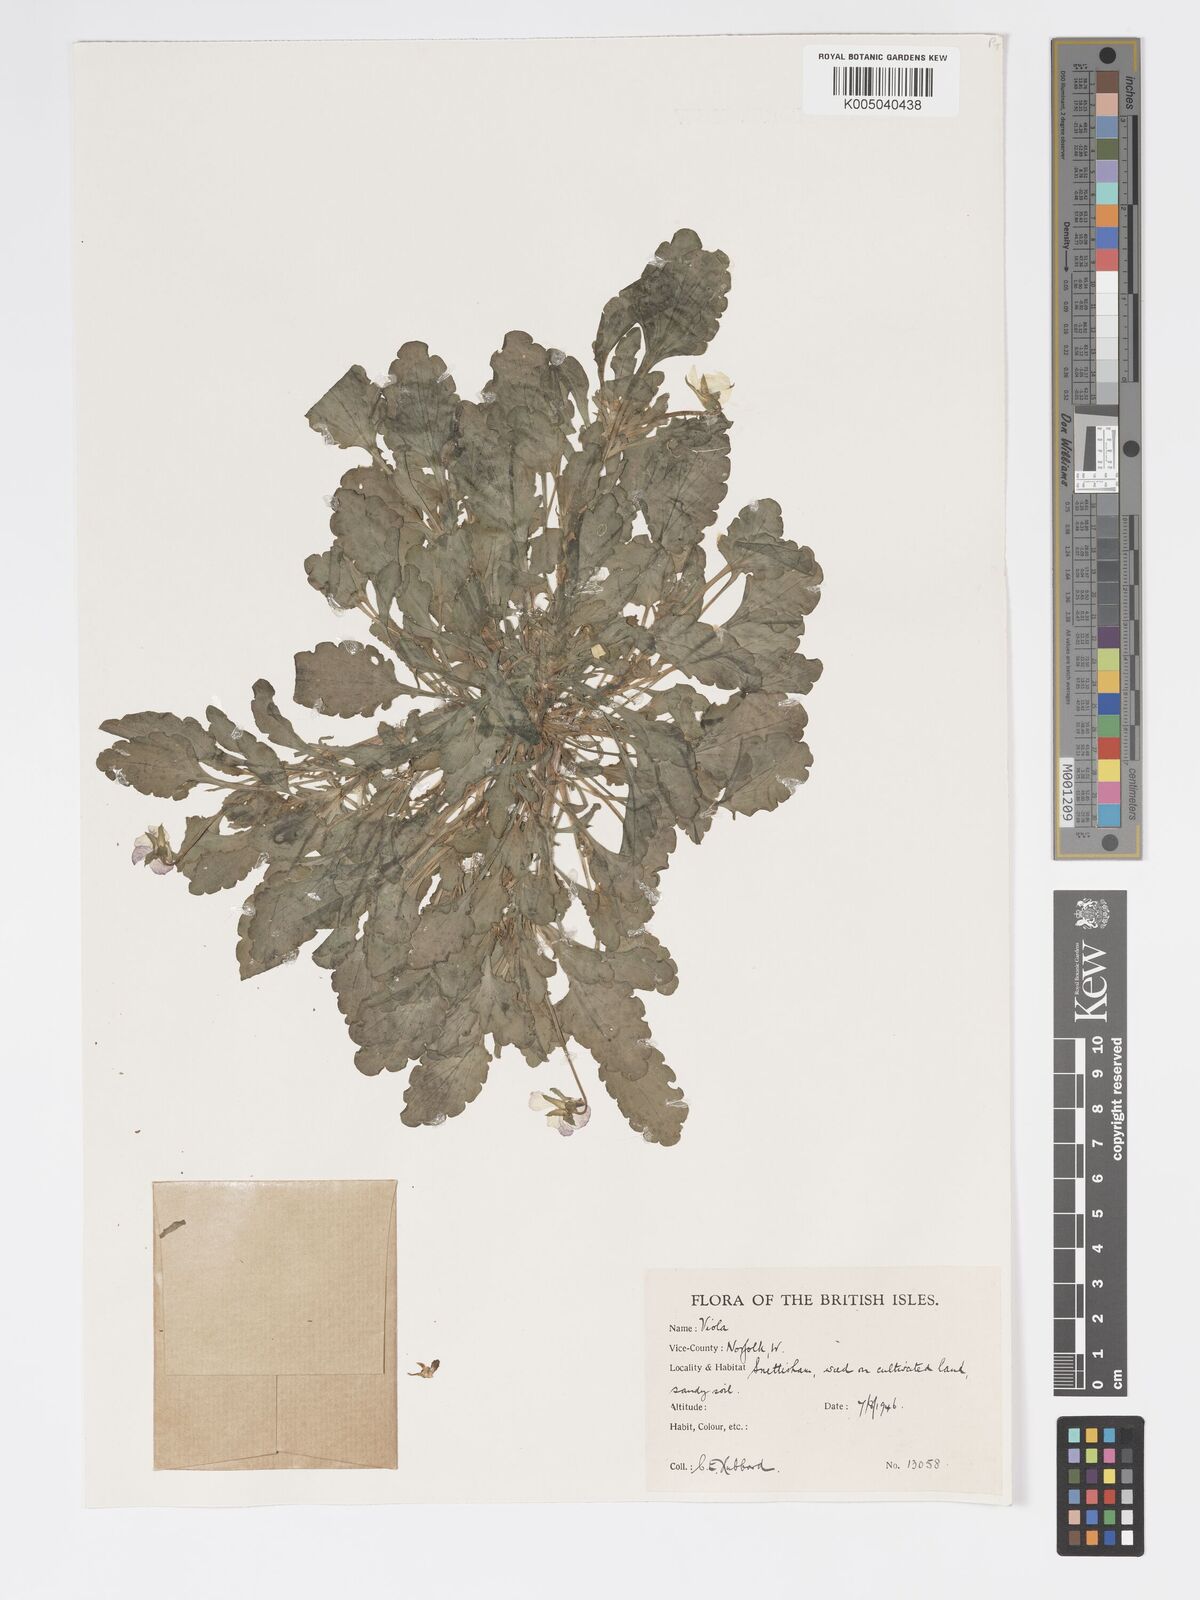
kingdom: Plantae
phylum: Tracheophyta
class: Magnoliopsida
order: Malpighiales
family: Violaceae
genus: Viola
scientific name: Viola arvensis
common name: Field pansy
